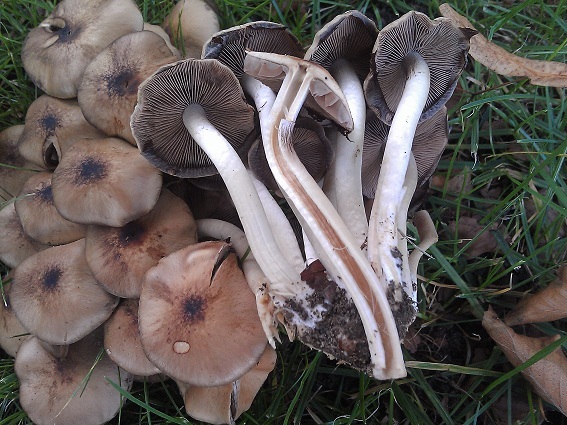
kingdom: Fungi
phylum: Basidiomycota
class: Agaricomycetes
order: Agaricales
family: Psathyrellaceae
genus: Psathyrella
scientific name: Psathyrella piluliformis
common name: lysstokket mørkhat
